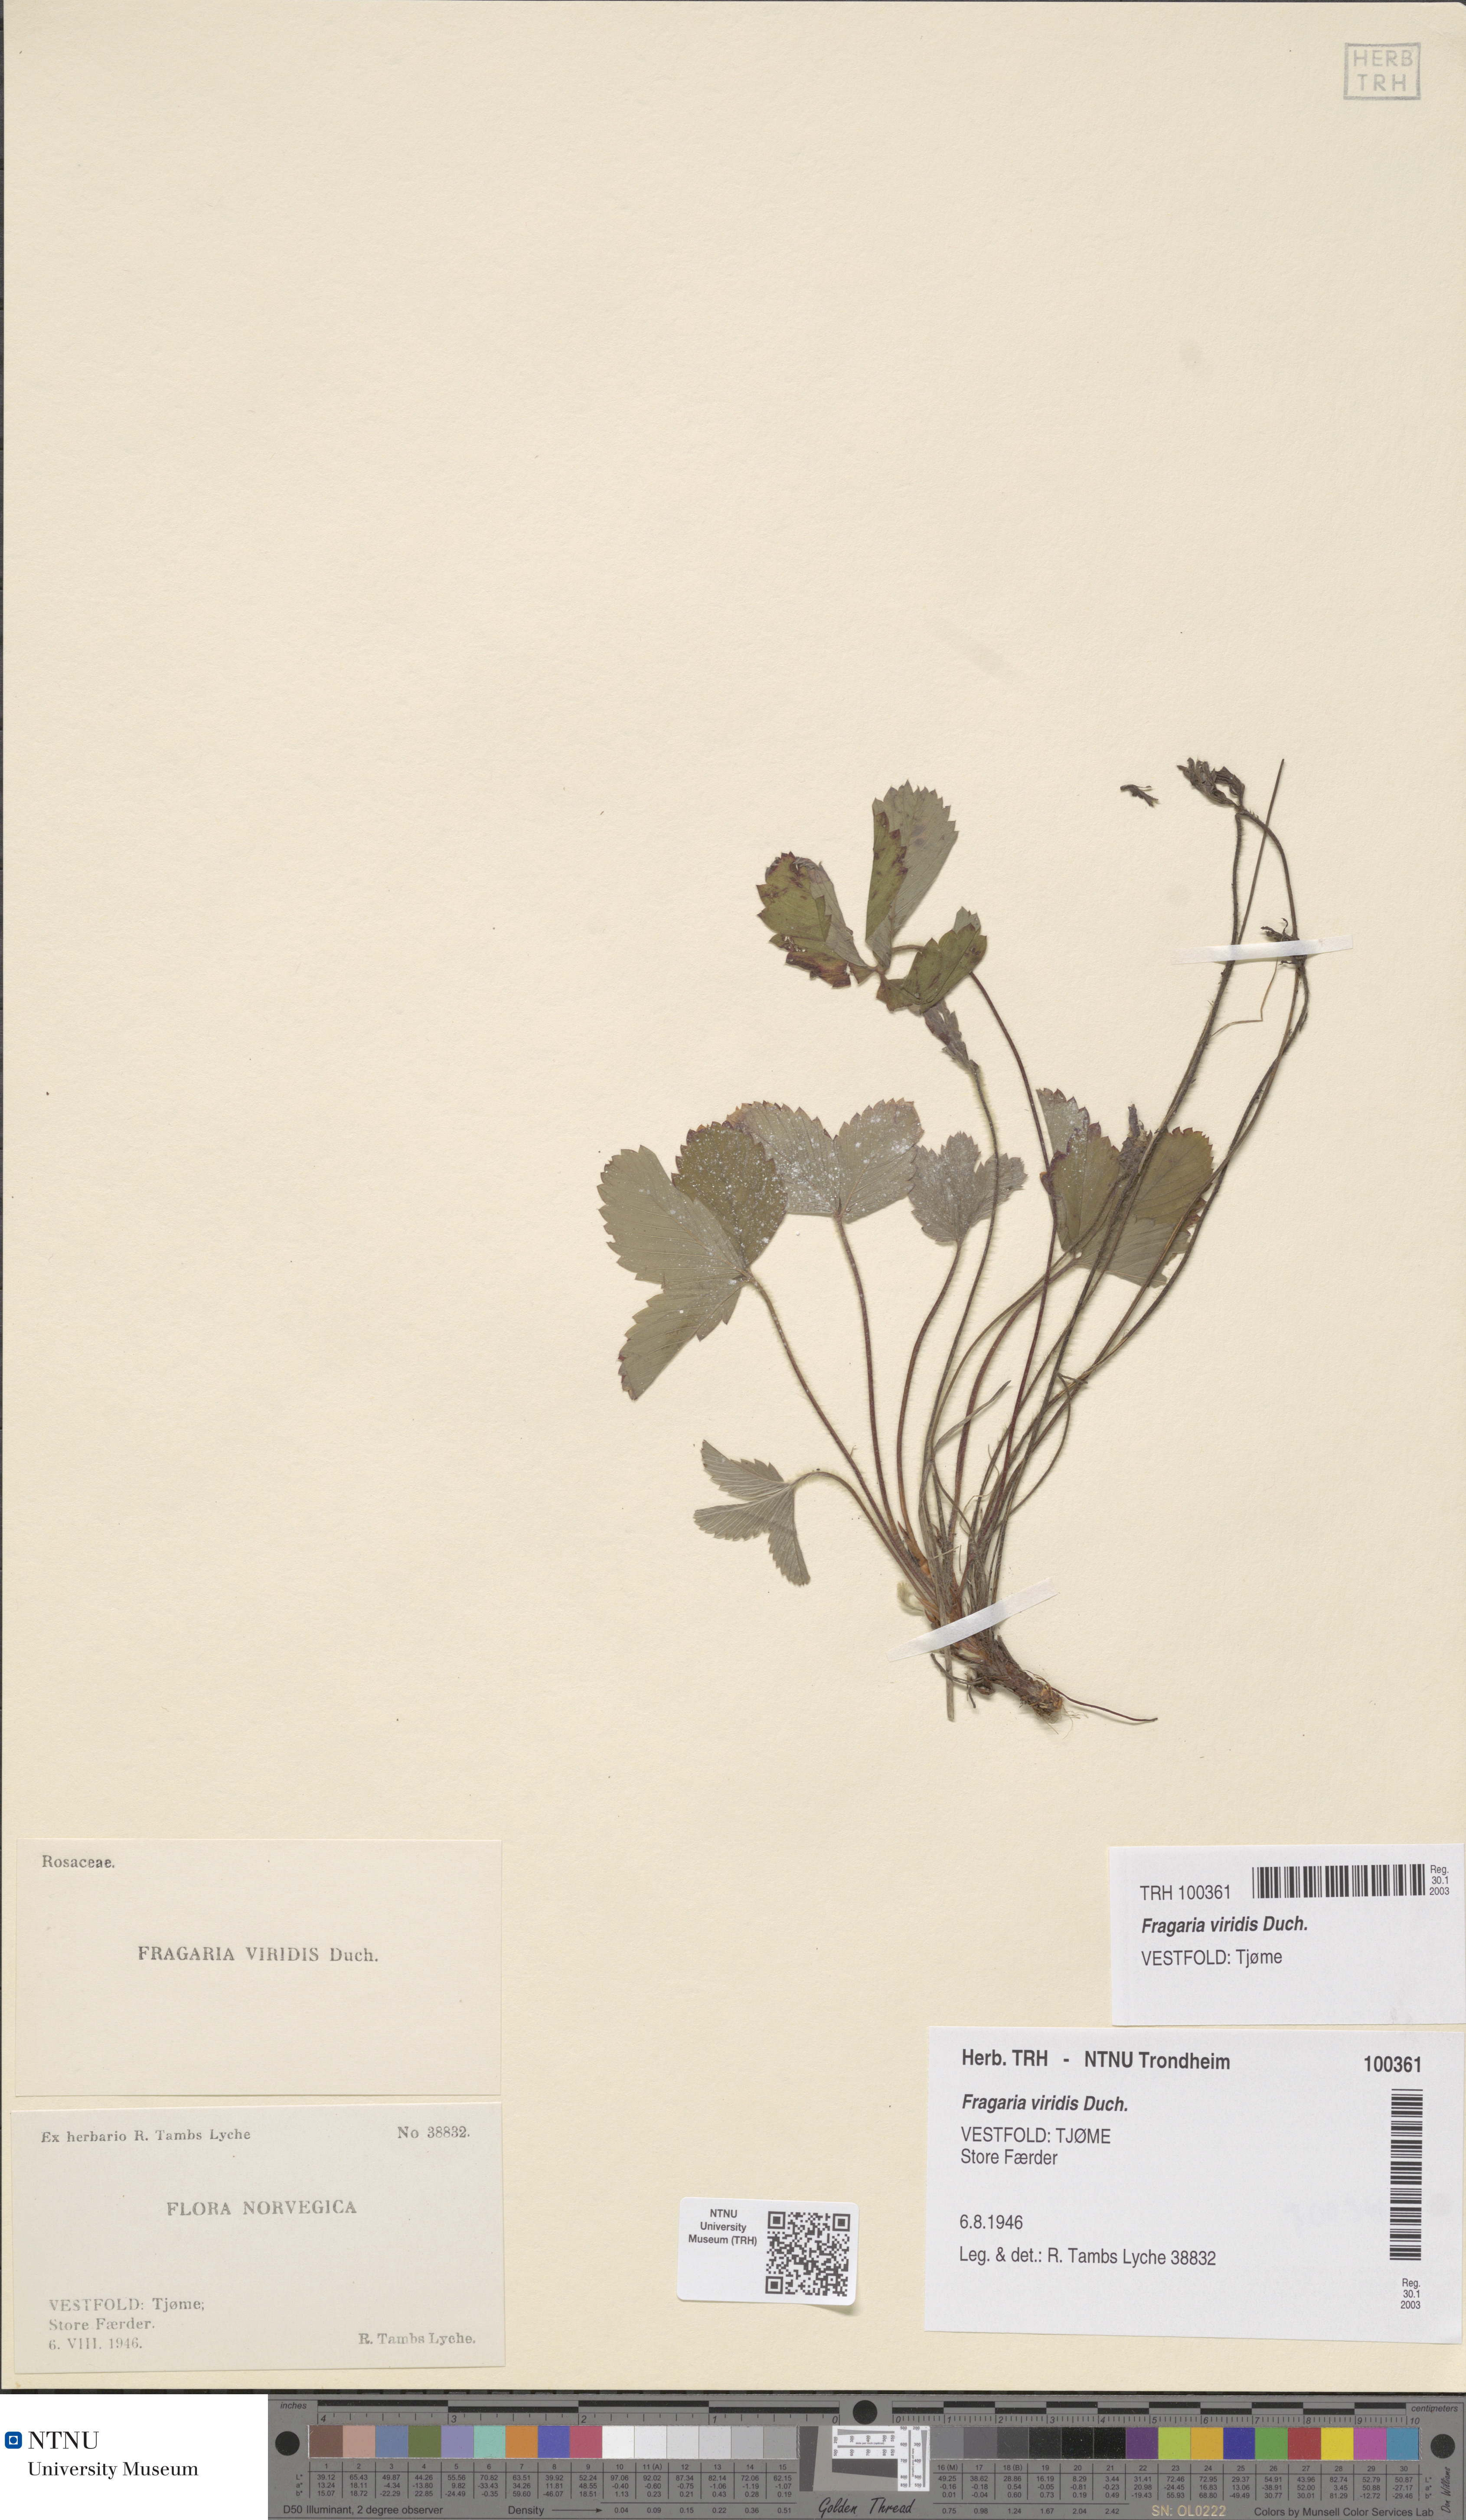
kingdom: Plantae
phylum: Tracheophyta
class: Magnoliopsida
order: Rosales
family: Rosaceae
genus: Fragaria
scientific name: Fragaria viridis
